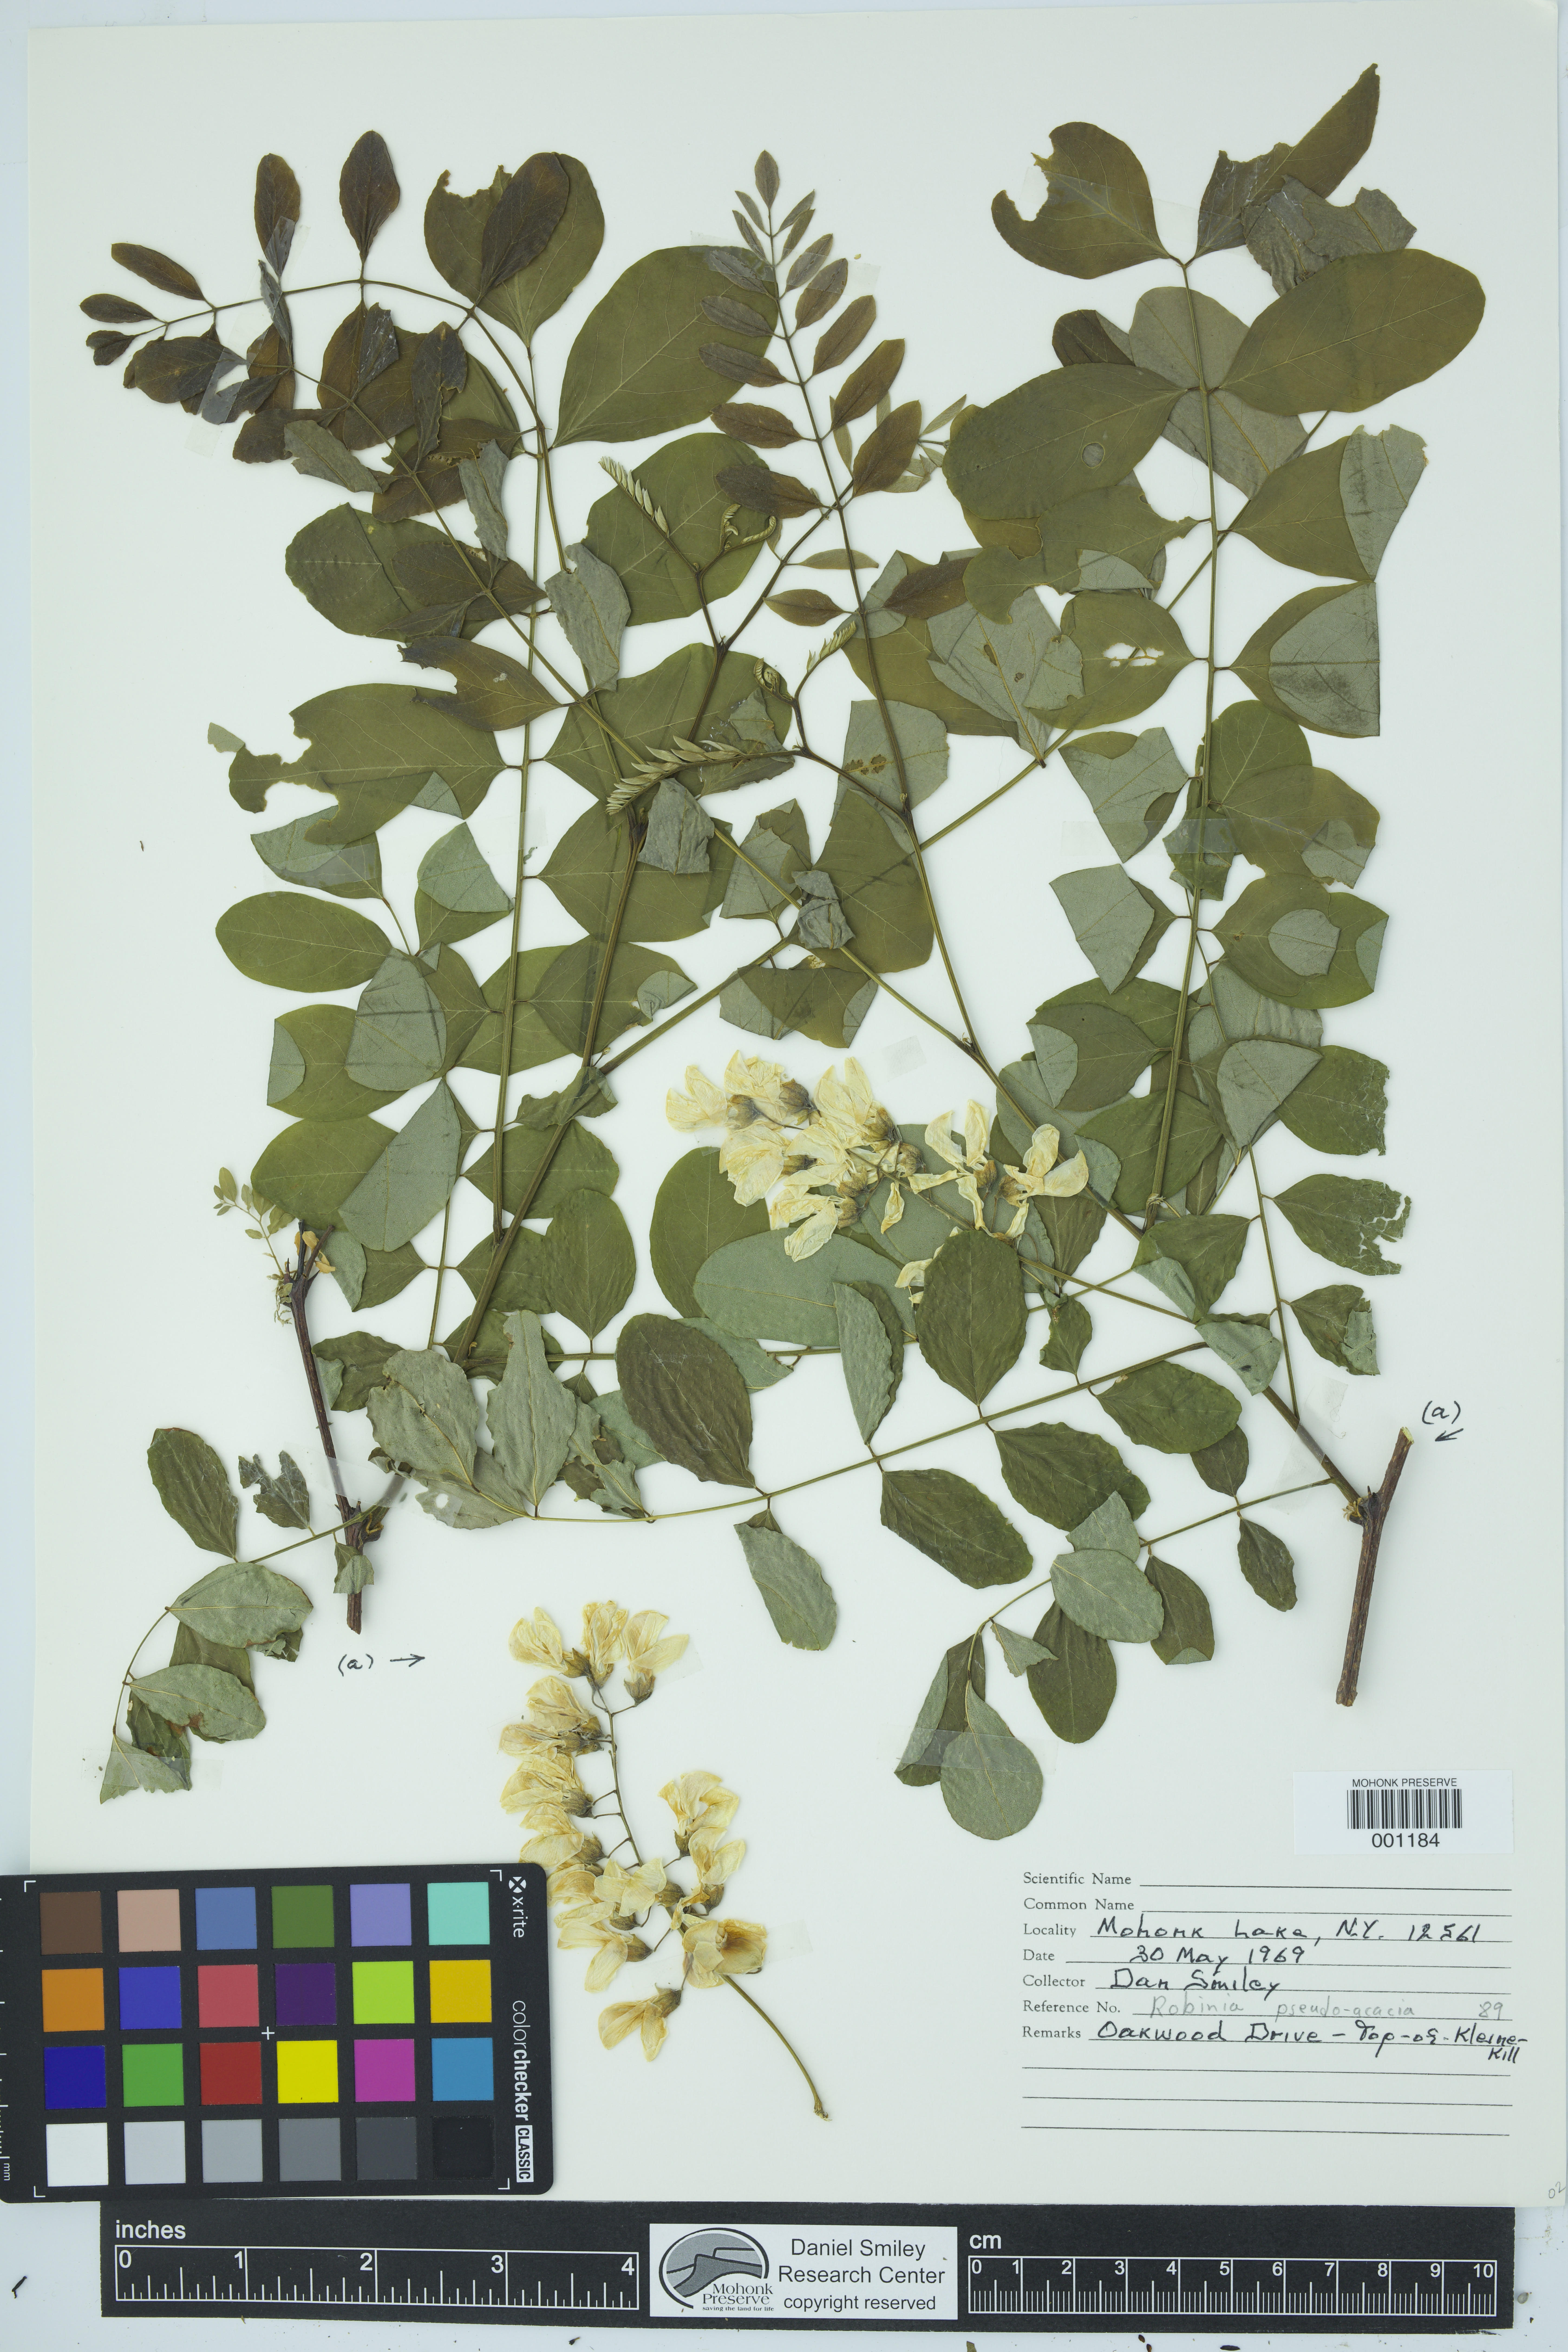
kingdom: Plantae
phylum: Tracheophyta
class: Magnoliopsida
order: Fabales
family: Fabaceae
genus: Robinia
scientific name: Robinia pseudoacacia
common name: Black locust
